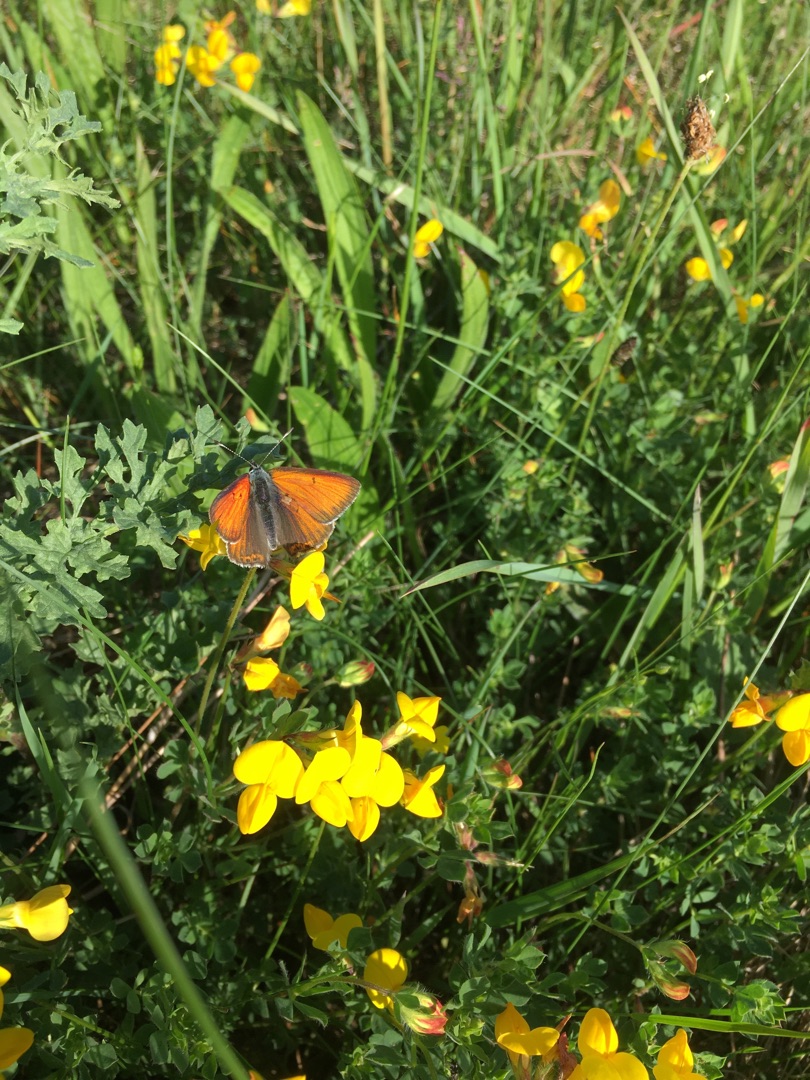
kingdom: Animalia
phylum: Arthropoda
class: Insecta
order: Lepidoptera
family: Lycaenidae
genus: Palaeochrysophanus
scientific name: Palaeochrysophanus hippothoe
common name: Violetrandet ildfugl
